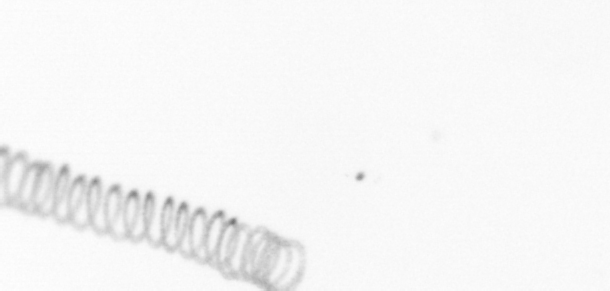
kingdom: Chromista
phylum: Ochrophyta
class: Bacillariophyceae
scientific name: Bacillariophyceae
